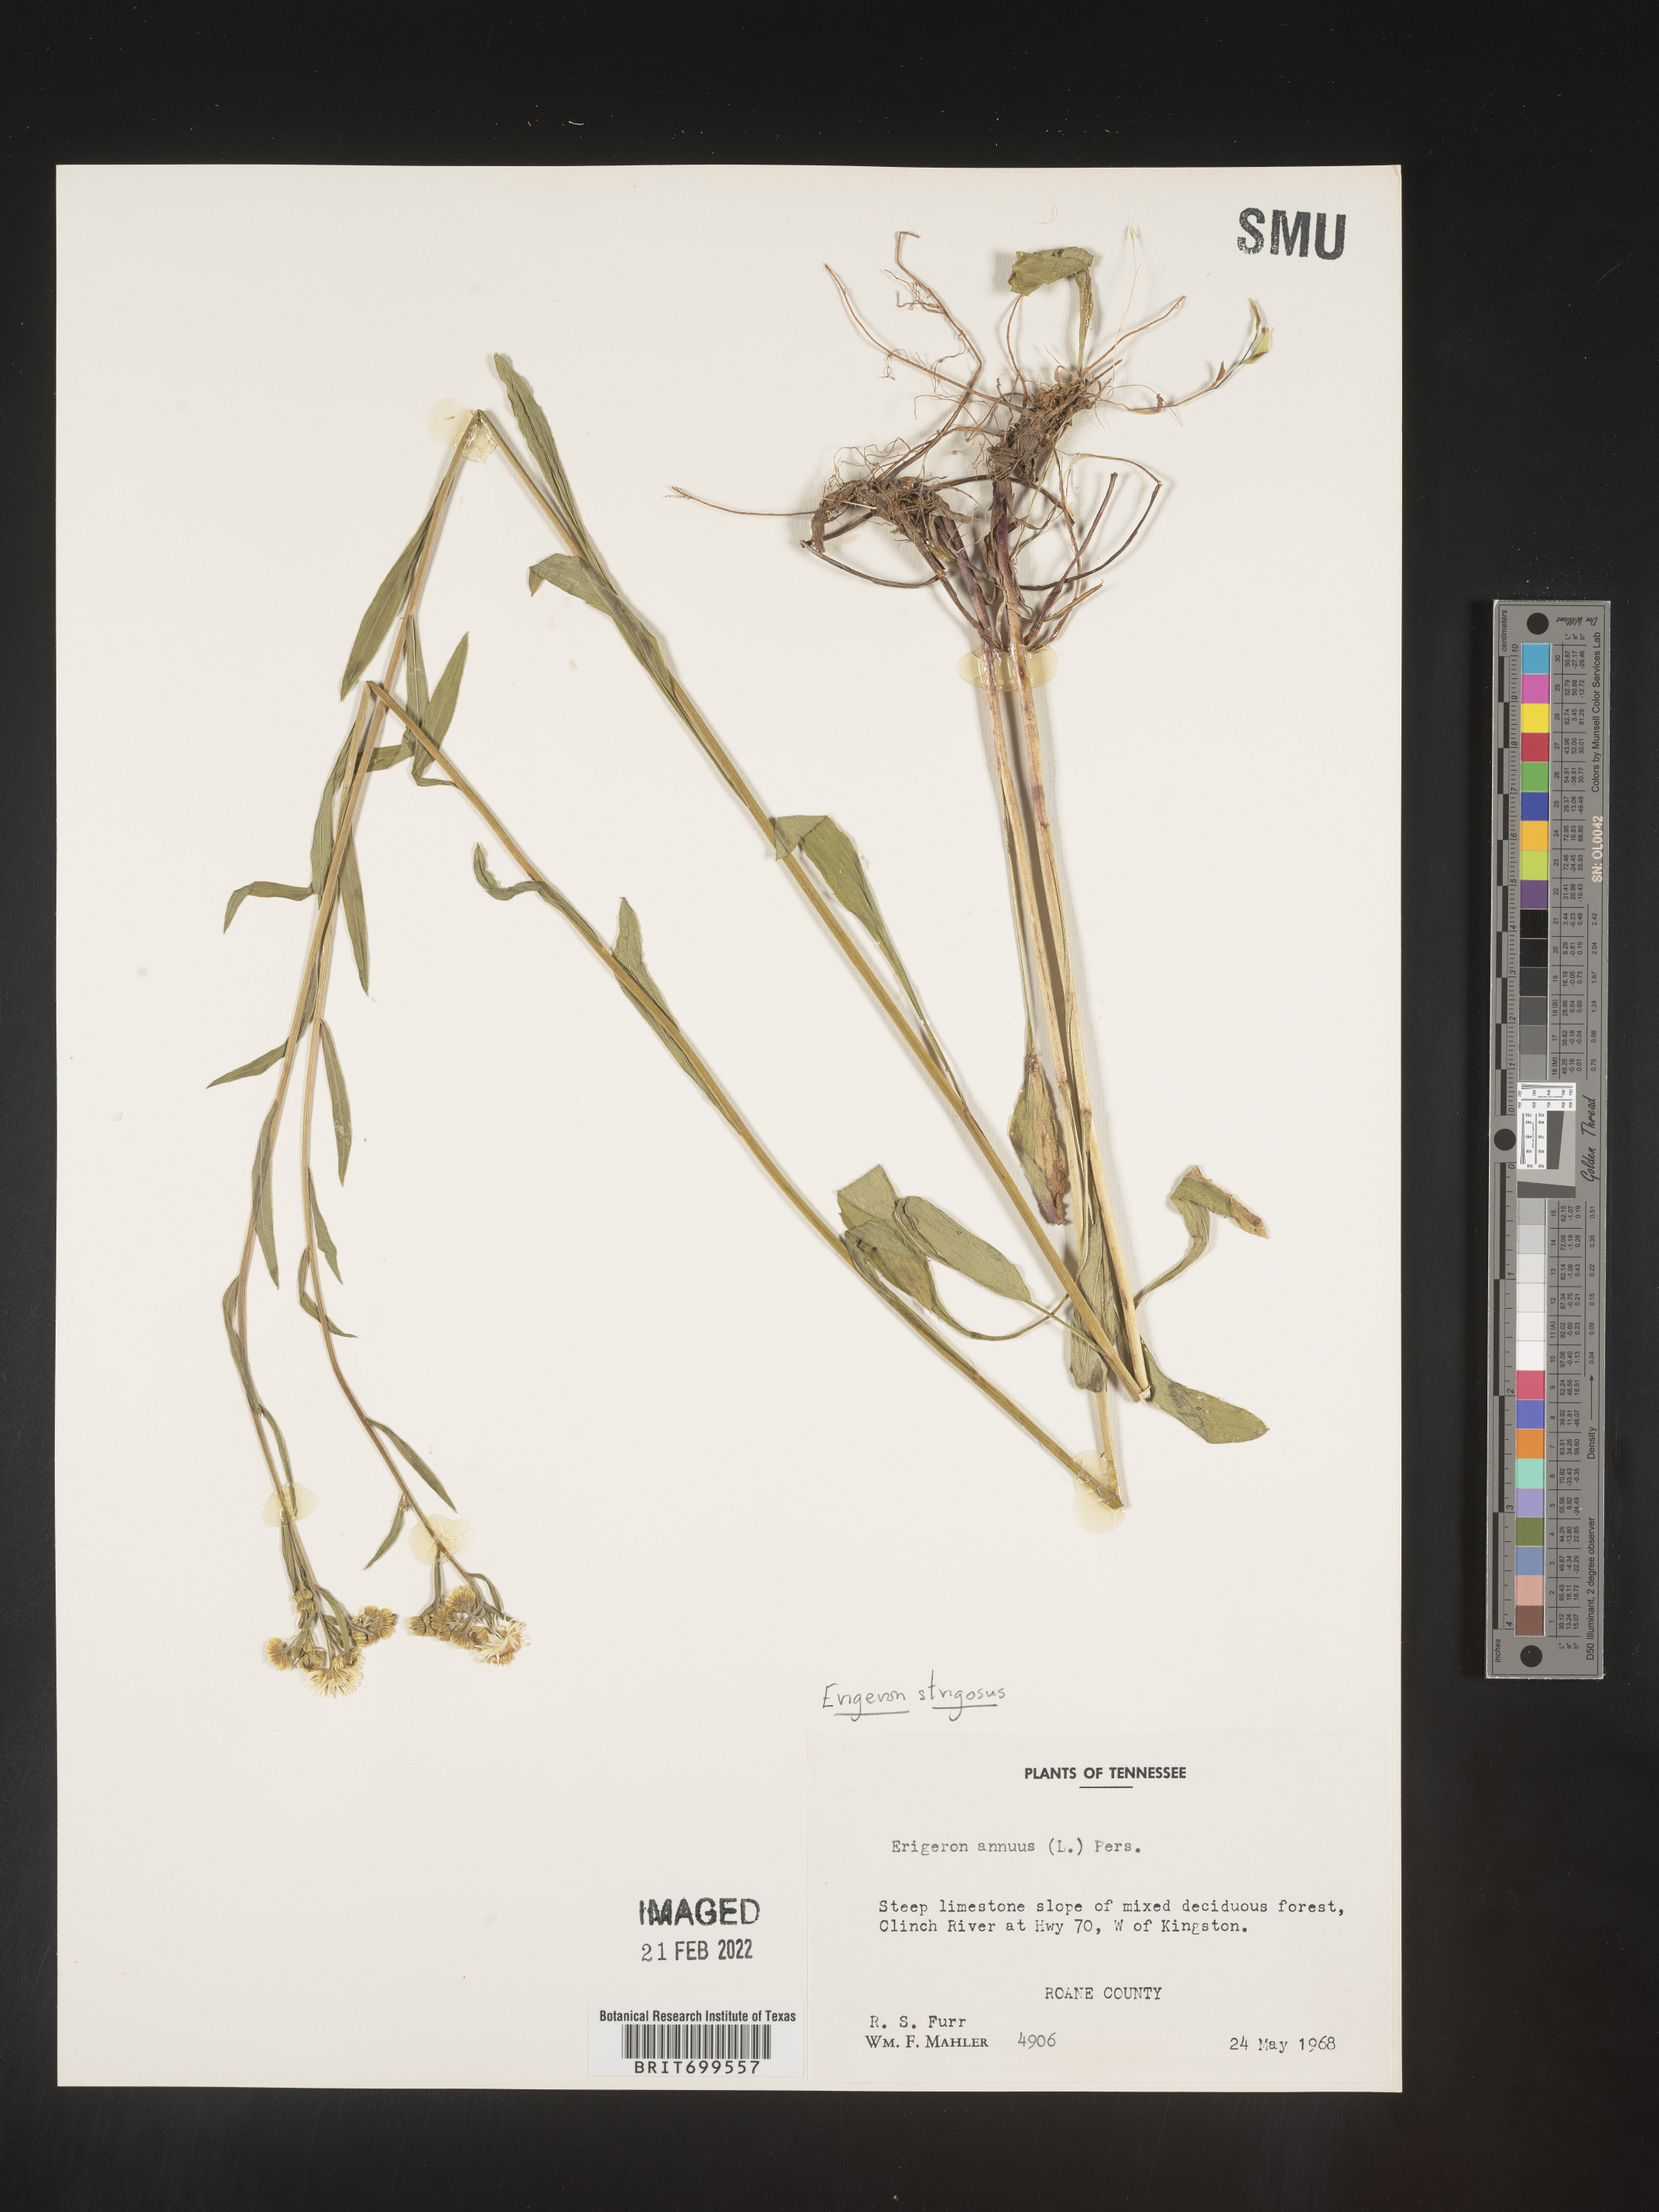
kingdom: Plantae
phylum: Tracheophyta
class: Magnoliopsida
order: Asterales
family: Asteraceae
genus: Erigeron
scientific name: Erigeron strigosus
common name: Common eastern fleabane
